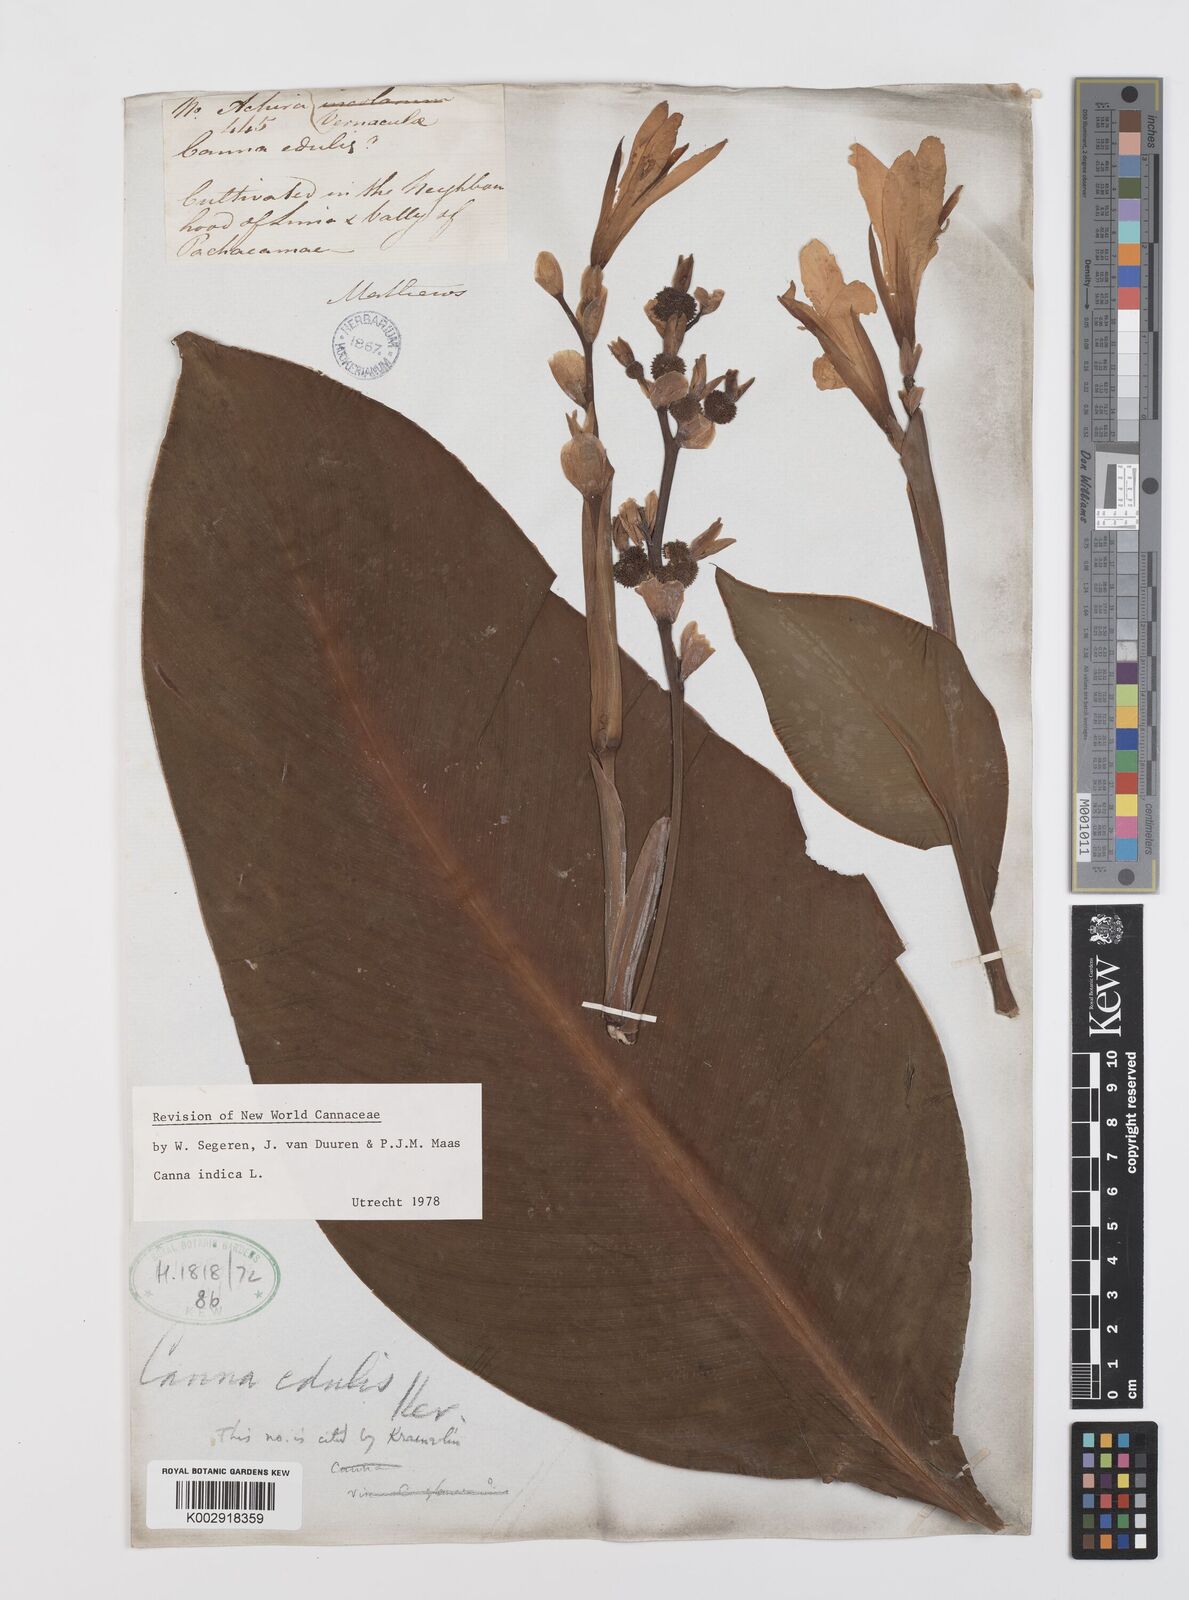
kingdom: Plantae
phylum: Tracheophyta
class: Liliopsida
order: Zingiberales
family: Cannaceae
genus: Canna
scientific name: Canna indica
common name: Indian shot
